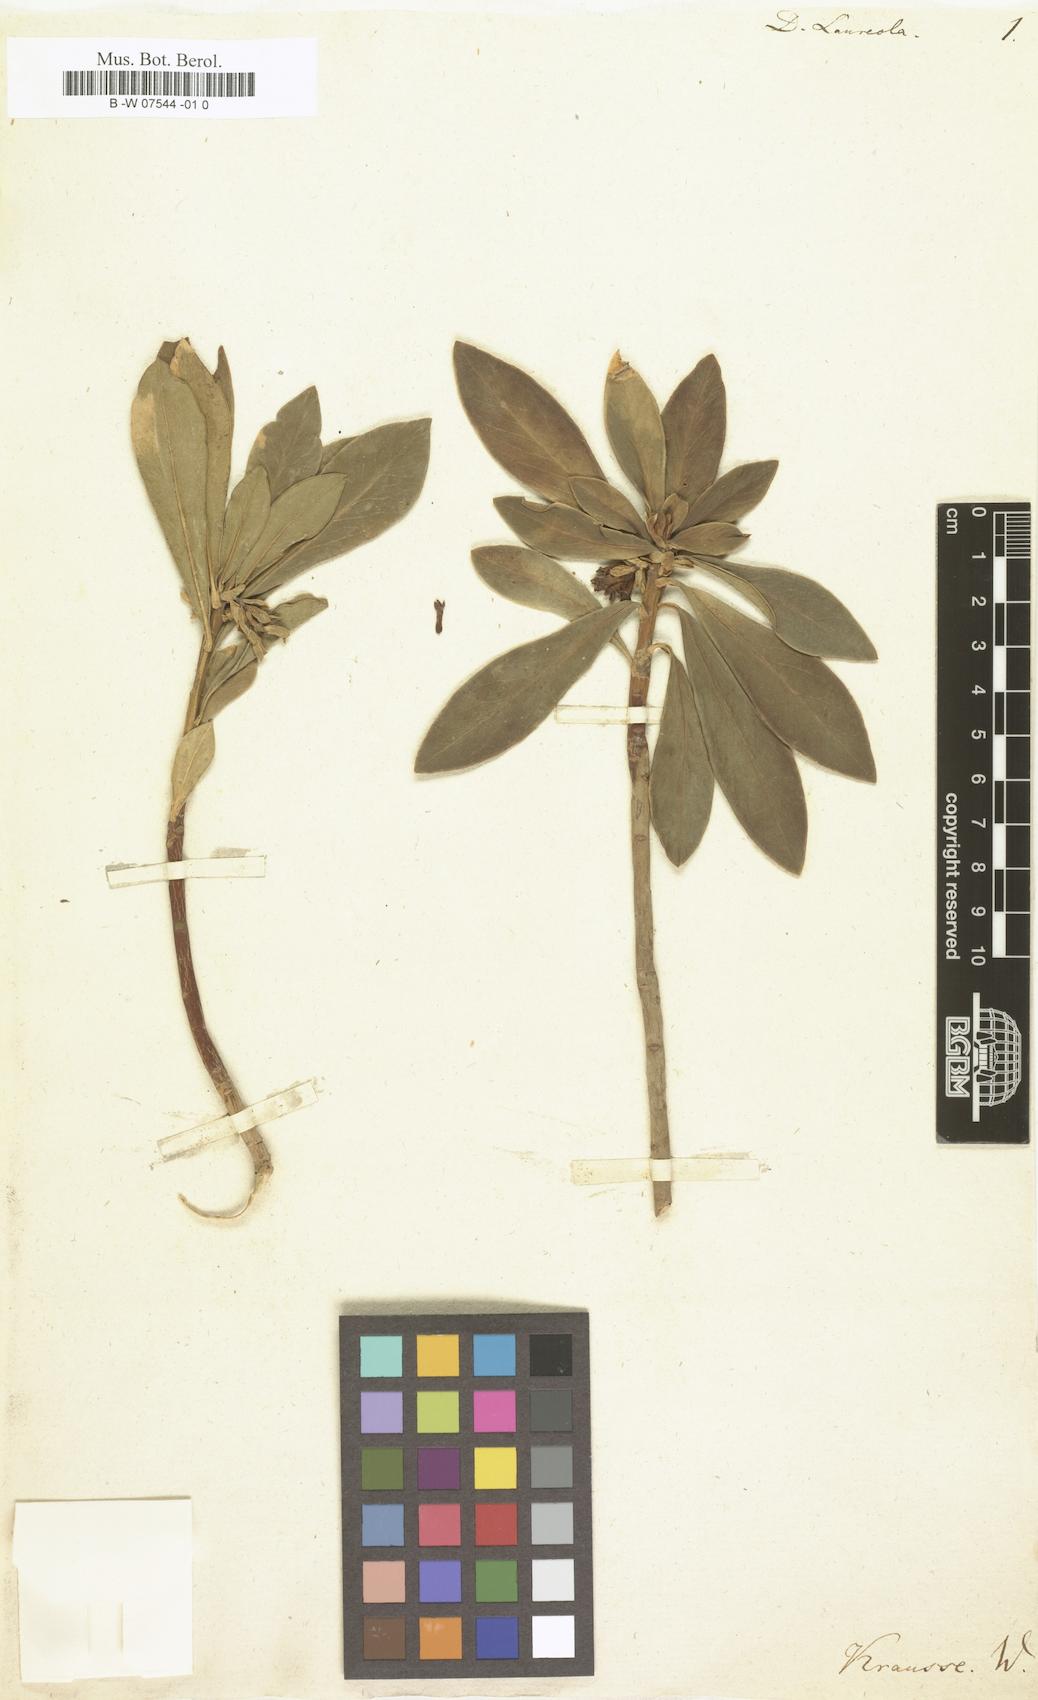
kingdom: Plantae
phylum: Tracheophyta
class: Magnoliopsida
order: Malvales
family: Thymelaeaceae
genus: Daphne
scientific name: Daphne laureola
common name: Spurge-laurel
